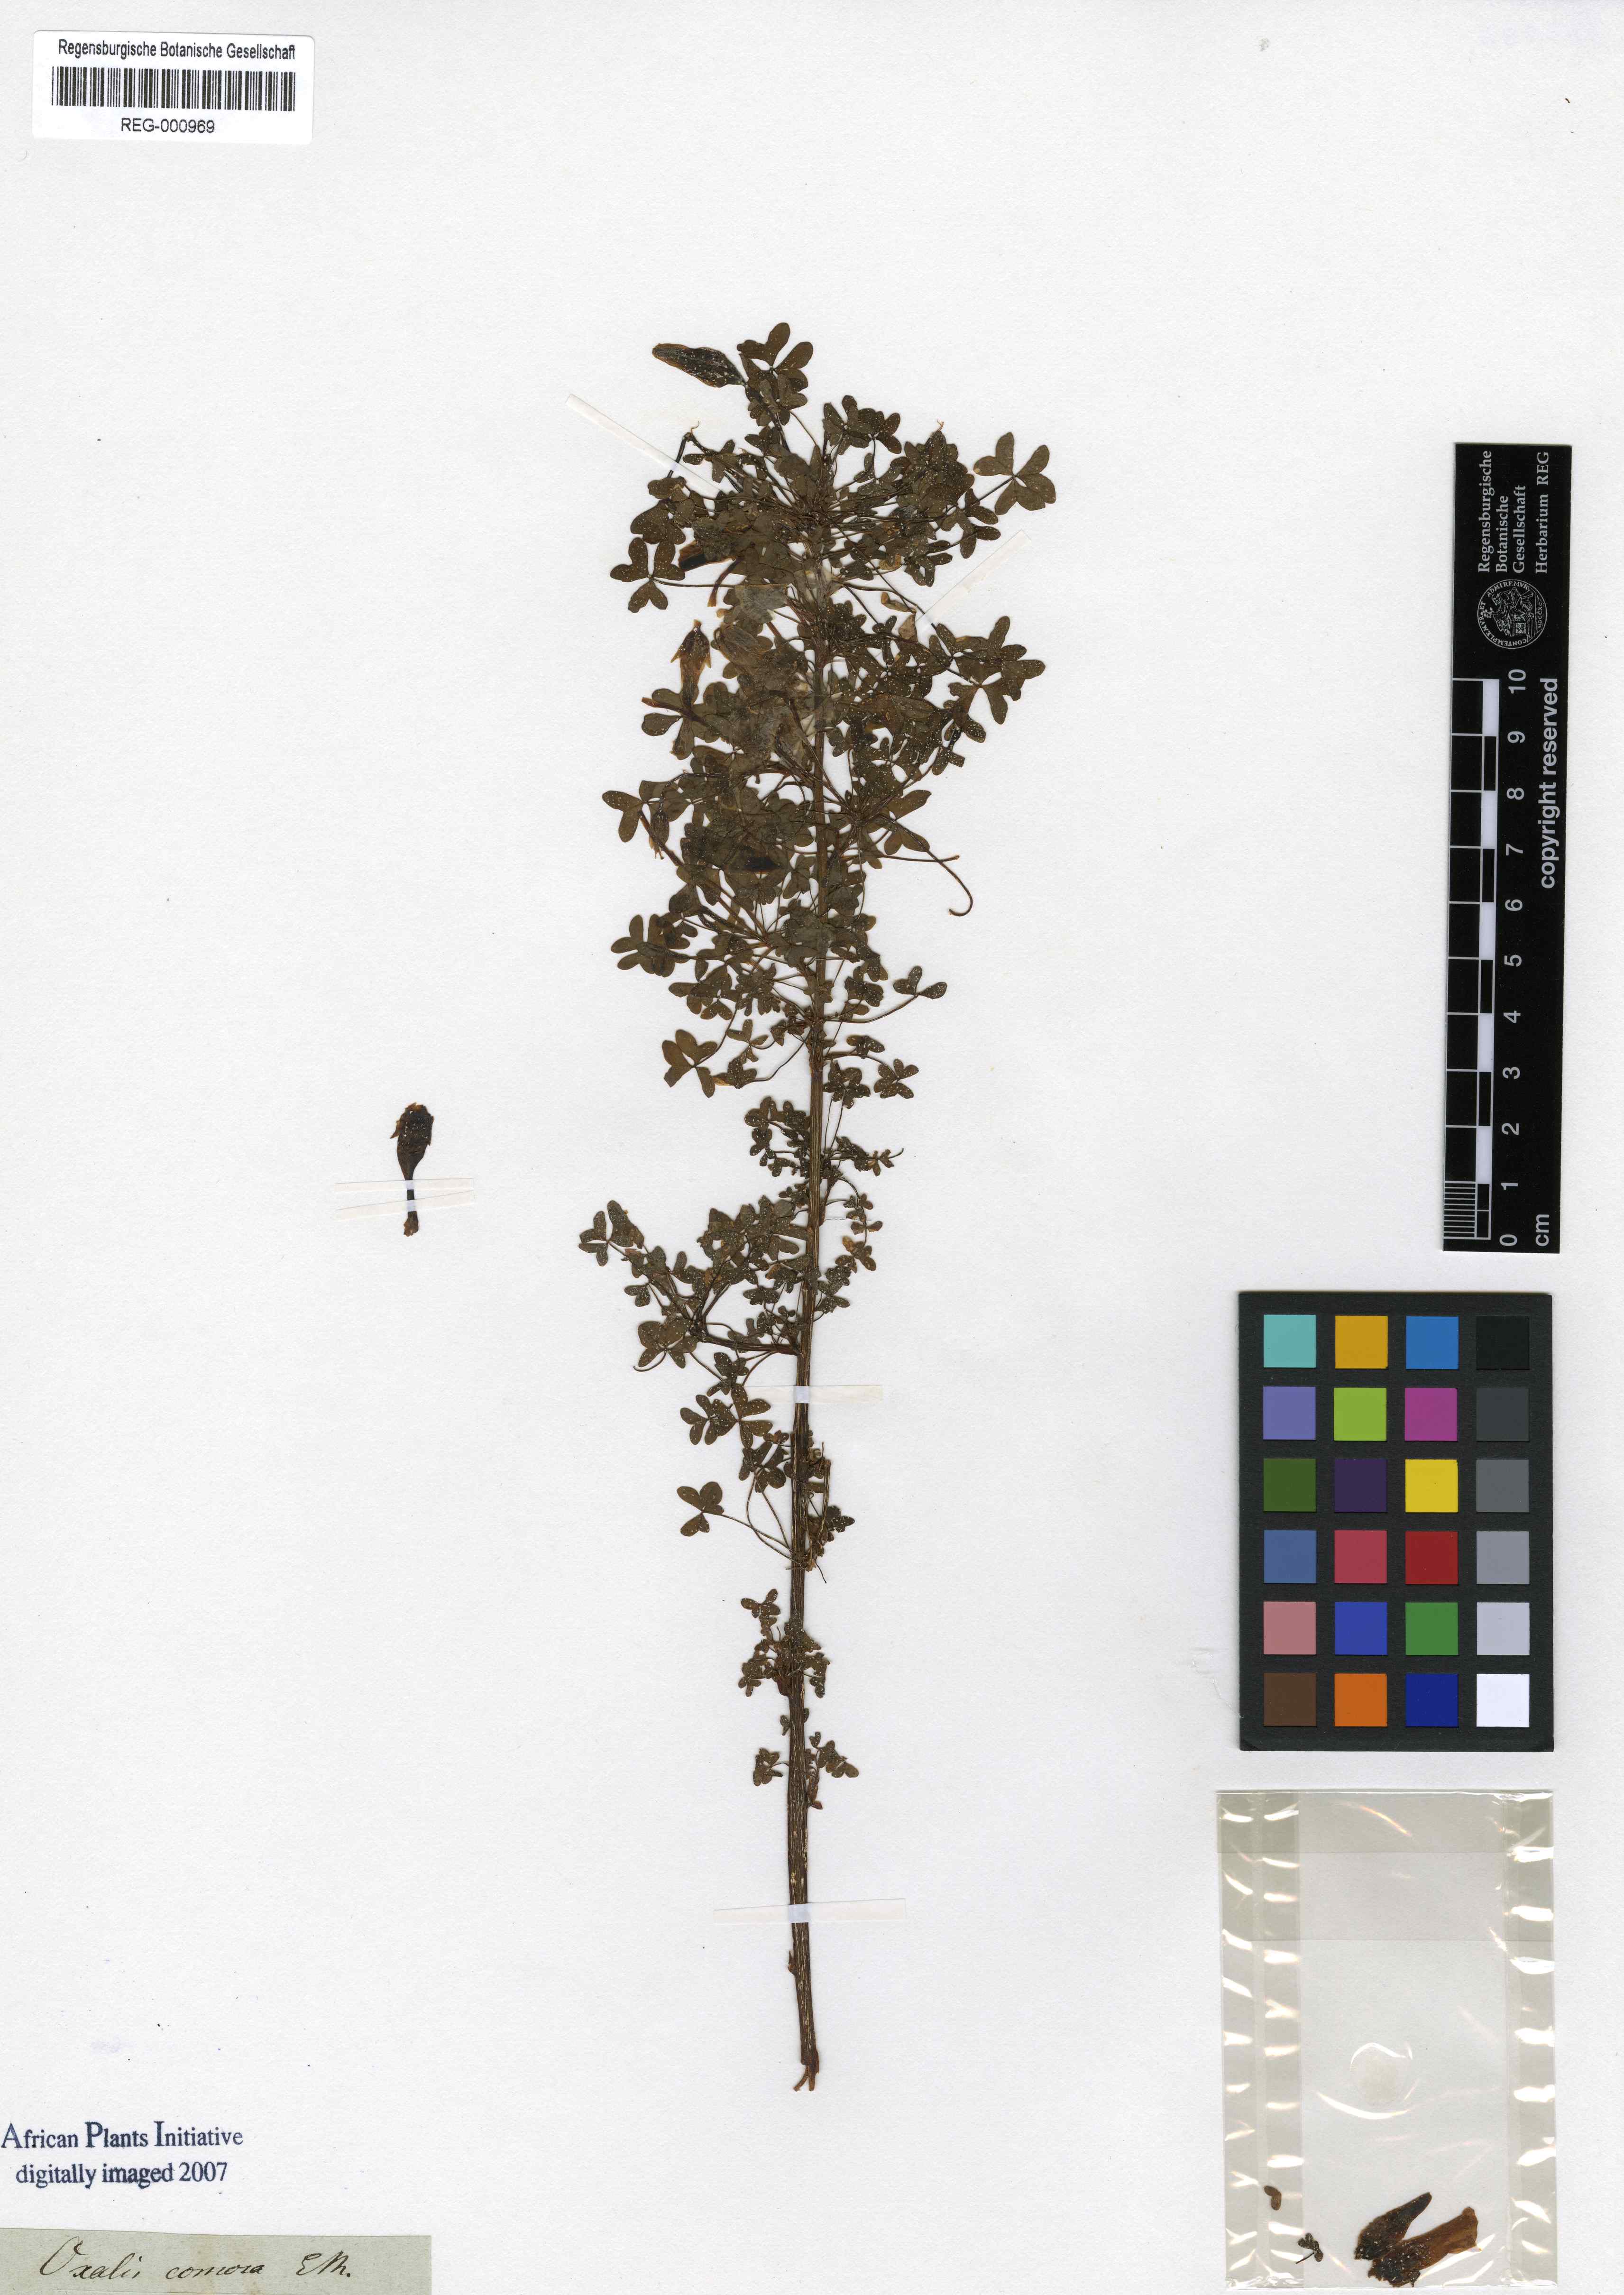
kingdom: Plantae
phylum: Tracheophyta
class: Magnoliopsida
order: Oxalidales
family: Oxalidaceae
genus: Oxalis
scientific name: Oxalis comosa
